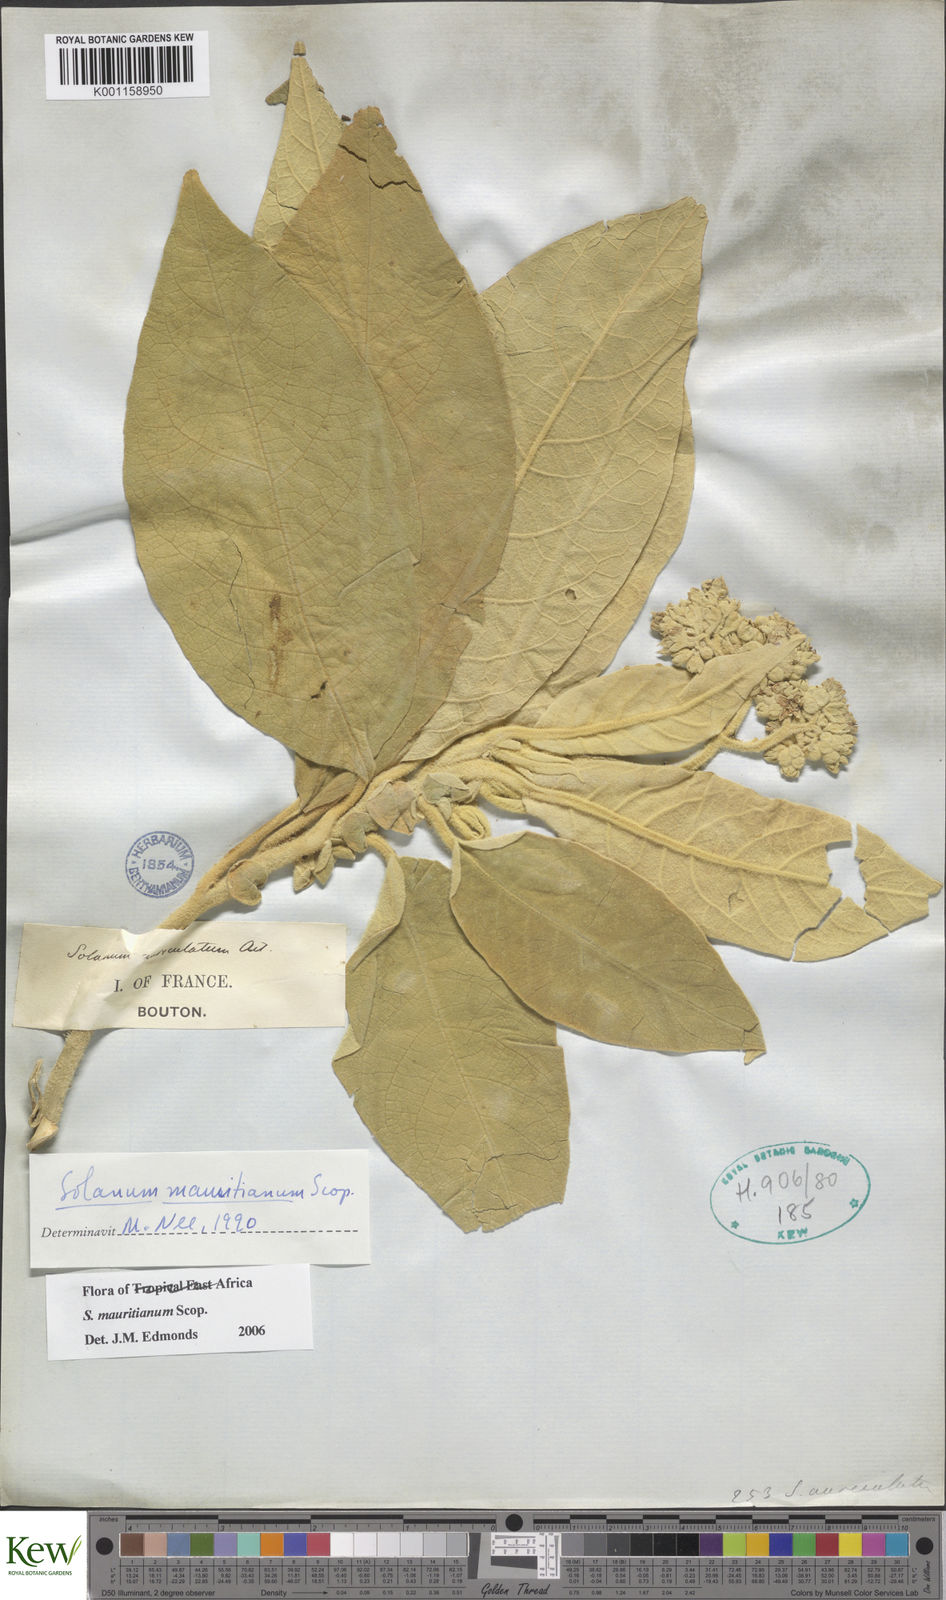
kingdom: Plantae
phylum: Tracheophyta
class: Magnoliopsida
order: Solanales
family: Solanaceae
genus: Solanum
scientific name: Solanum mauritianum
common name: Earleaf nightshade
